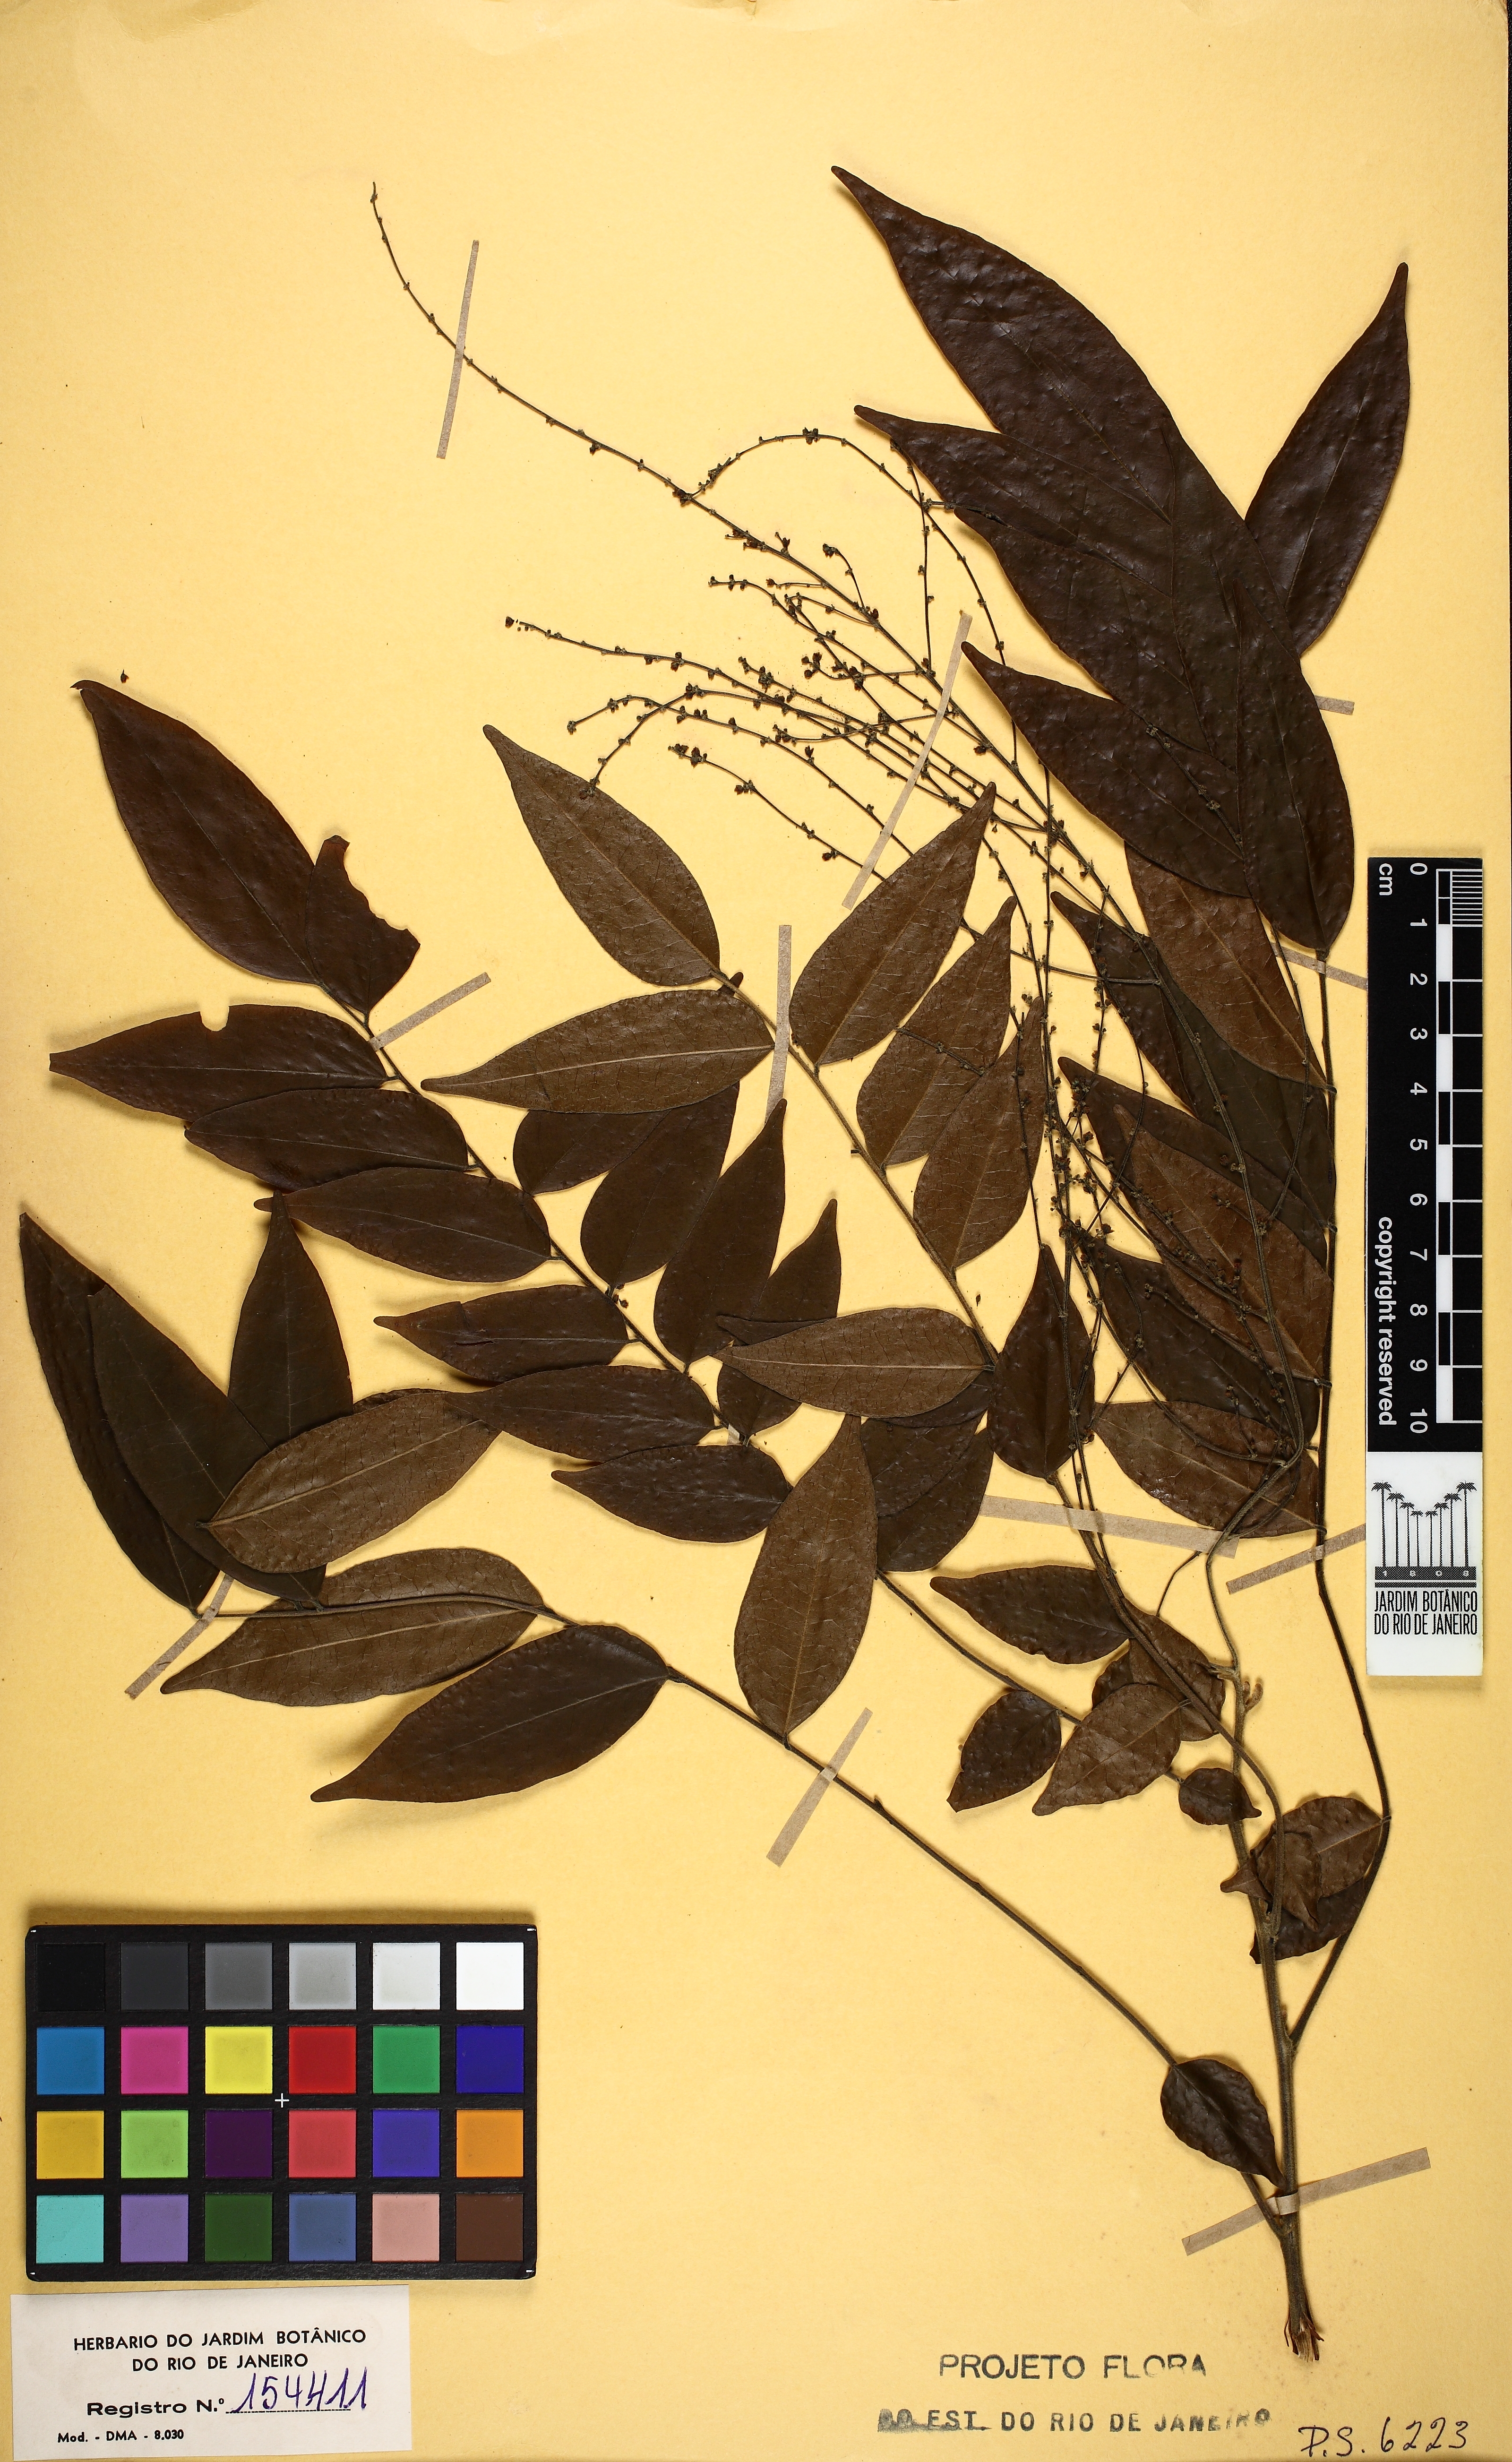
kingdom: Plantae
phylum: Tracheophyta
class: Magnoliopsida
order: Picramniales
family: Picramniaceae
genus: Picramnia
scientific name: Picramnia ciliata
